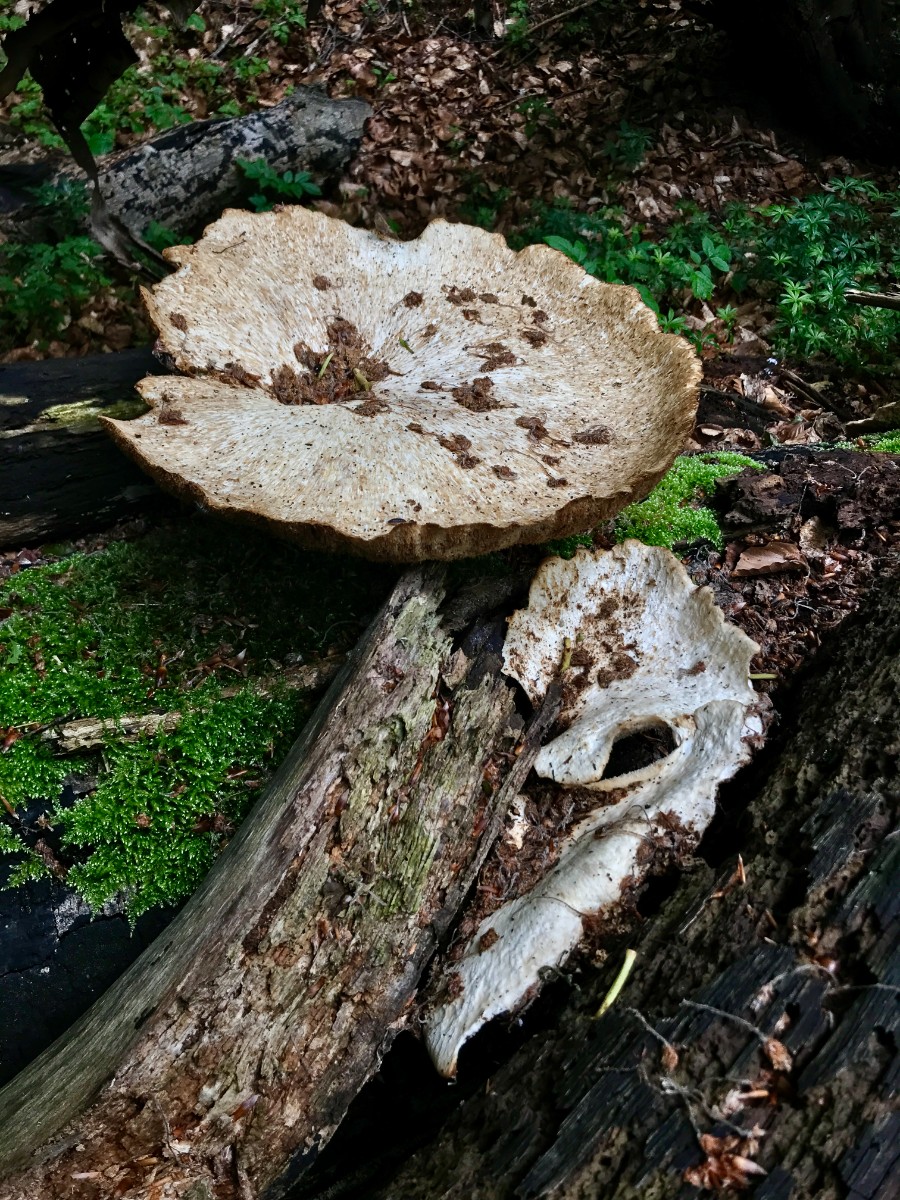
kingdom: Fungi
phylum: Basidiomycota
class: Agaricomycetes
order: Polyporales
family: Polyporaceae
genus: Cerioporus
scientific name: Cerioporus squamosus
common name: skællet stilkporesvamp
